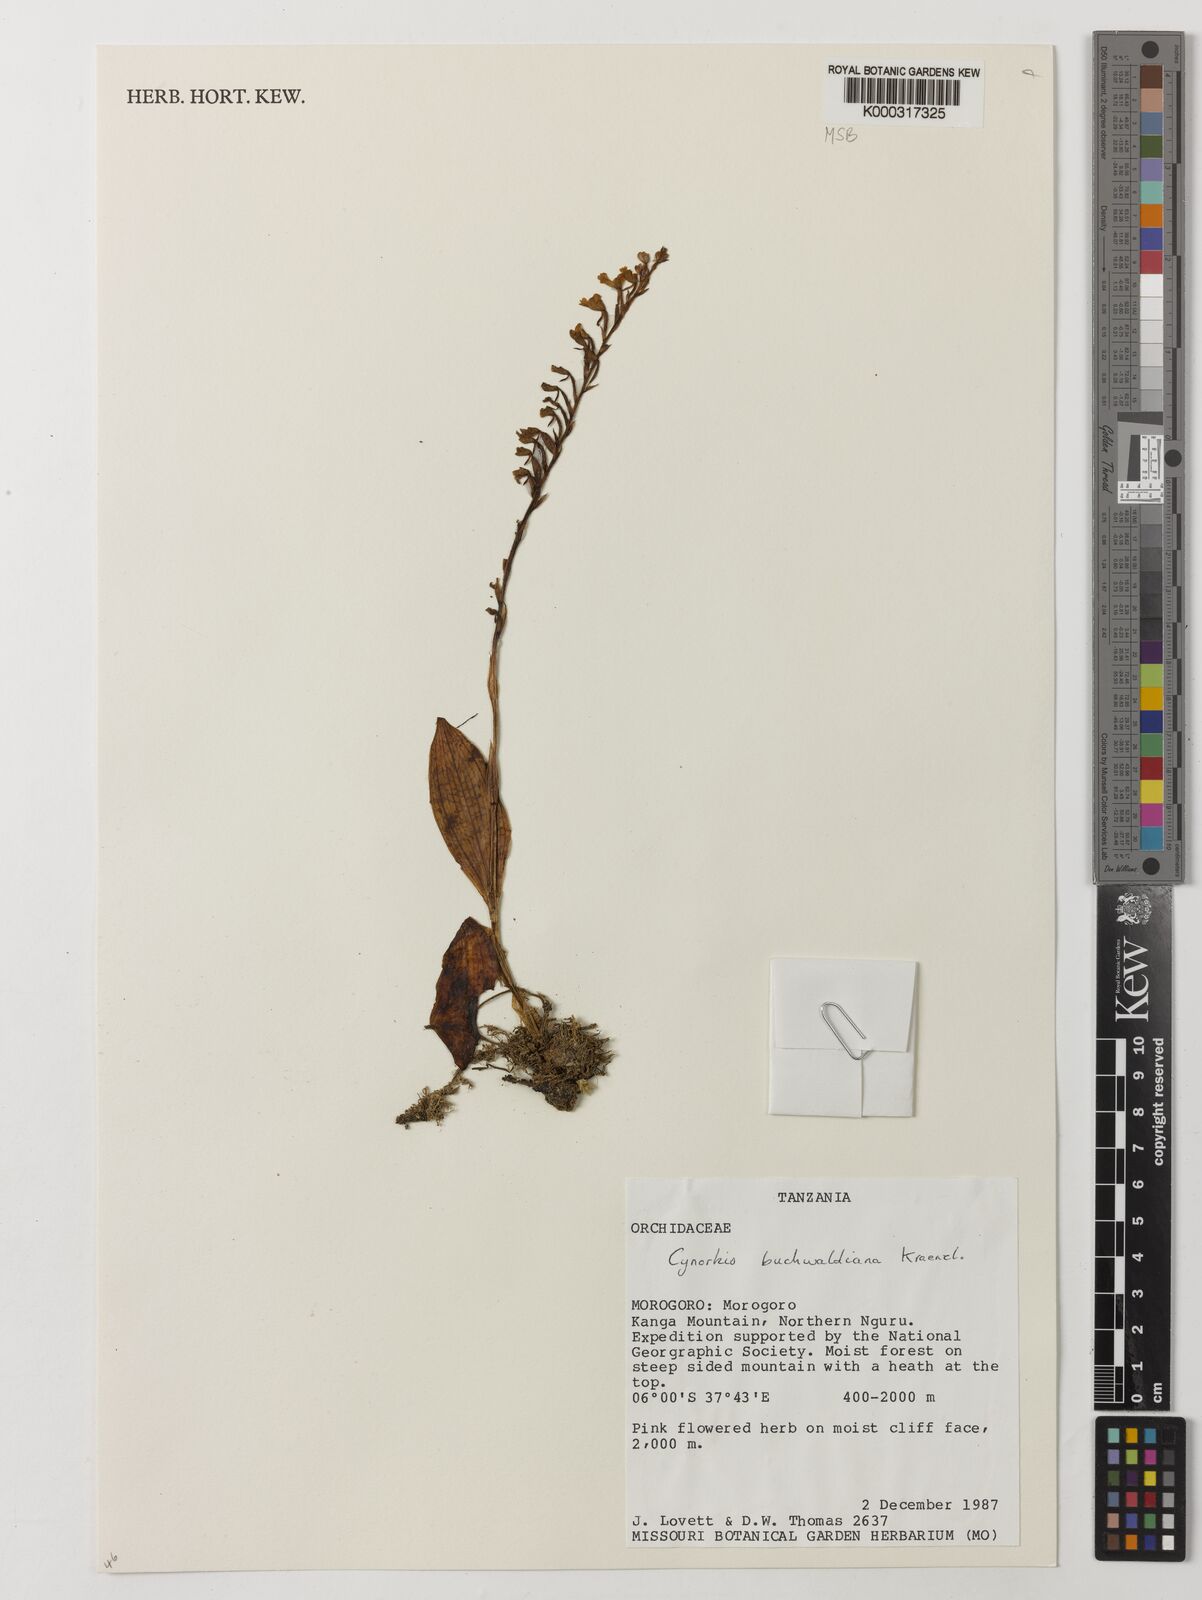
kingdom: Plantae
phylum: Tracheophyta
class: Liliopsida
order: Asparagales
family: Orchidaceae
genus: Cynorkis
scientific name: Cynorkis buchwaldiana
